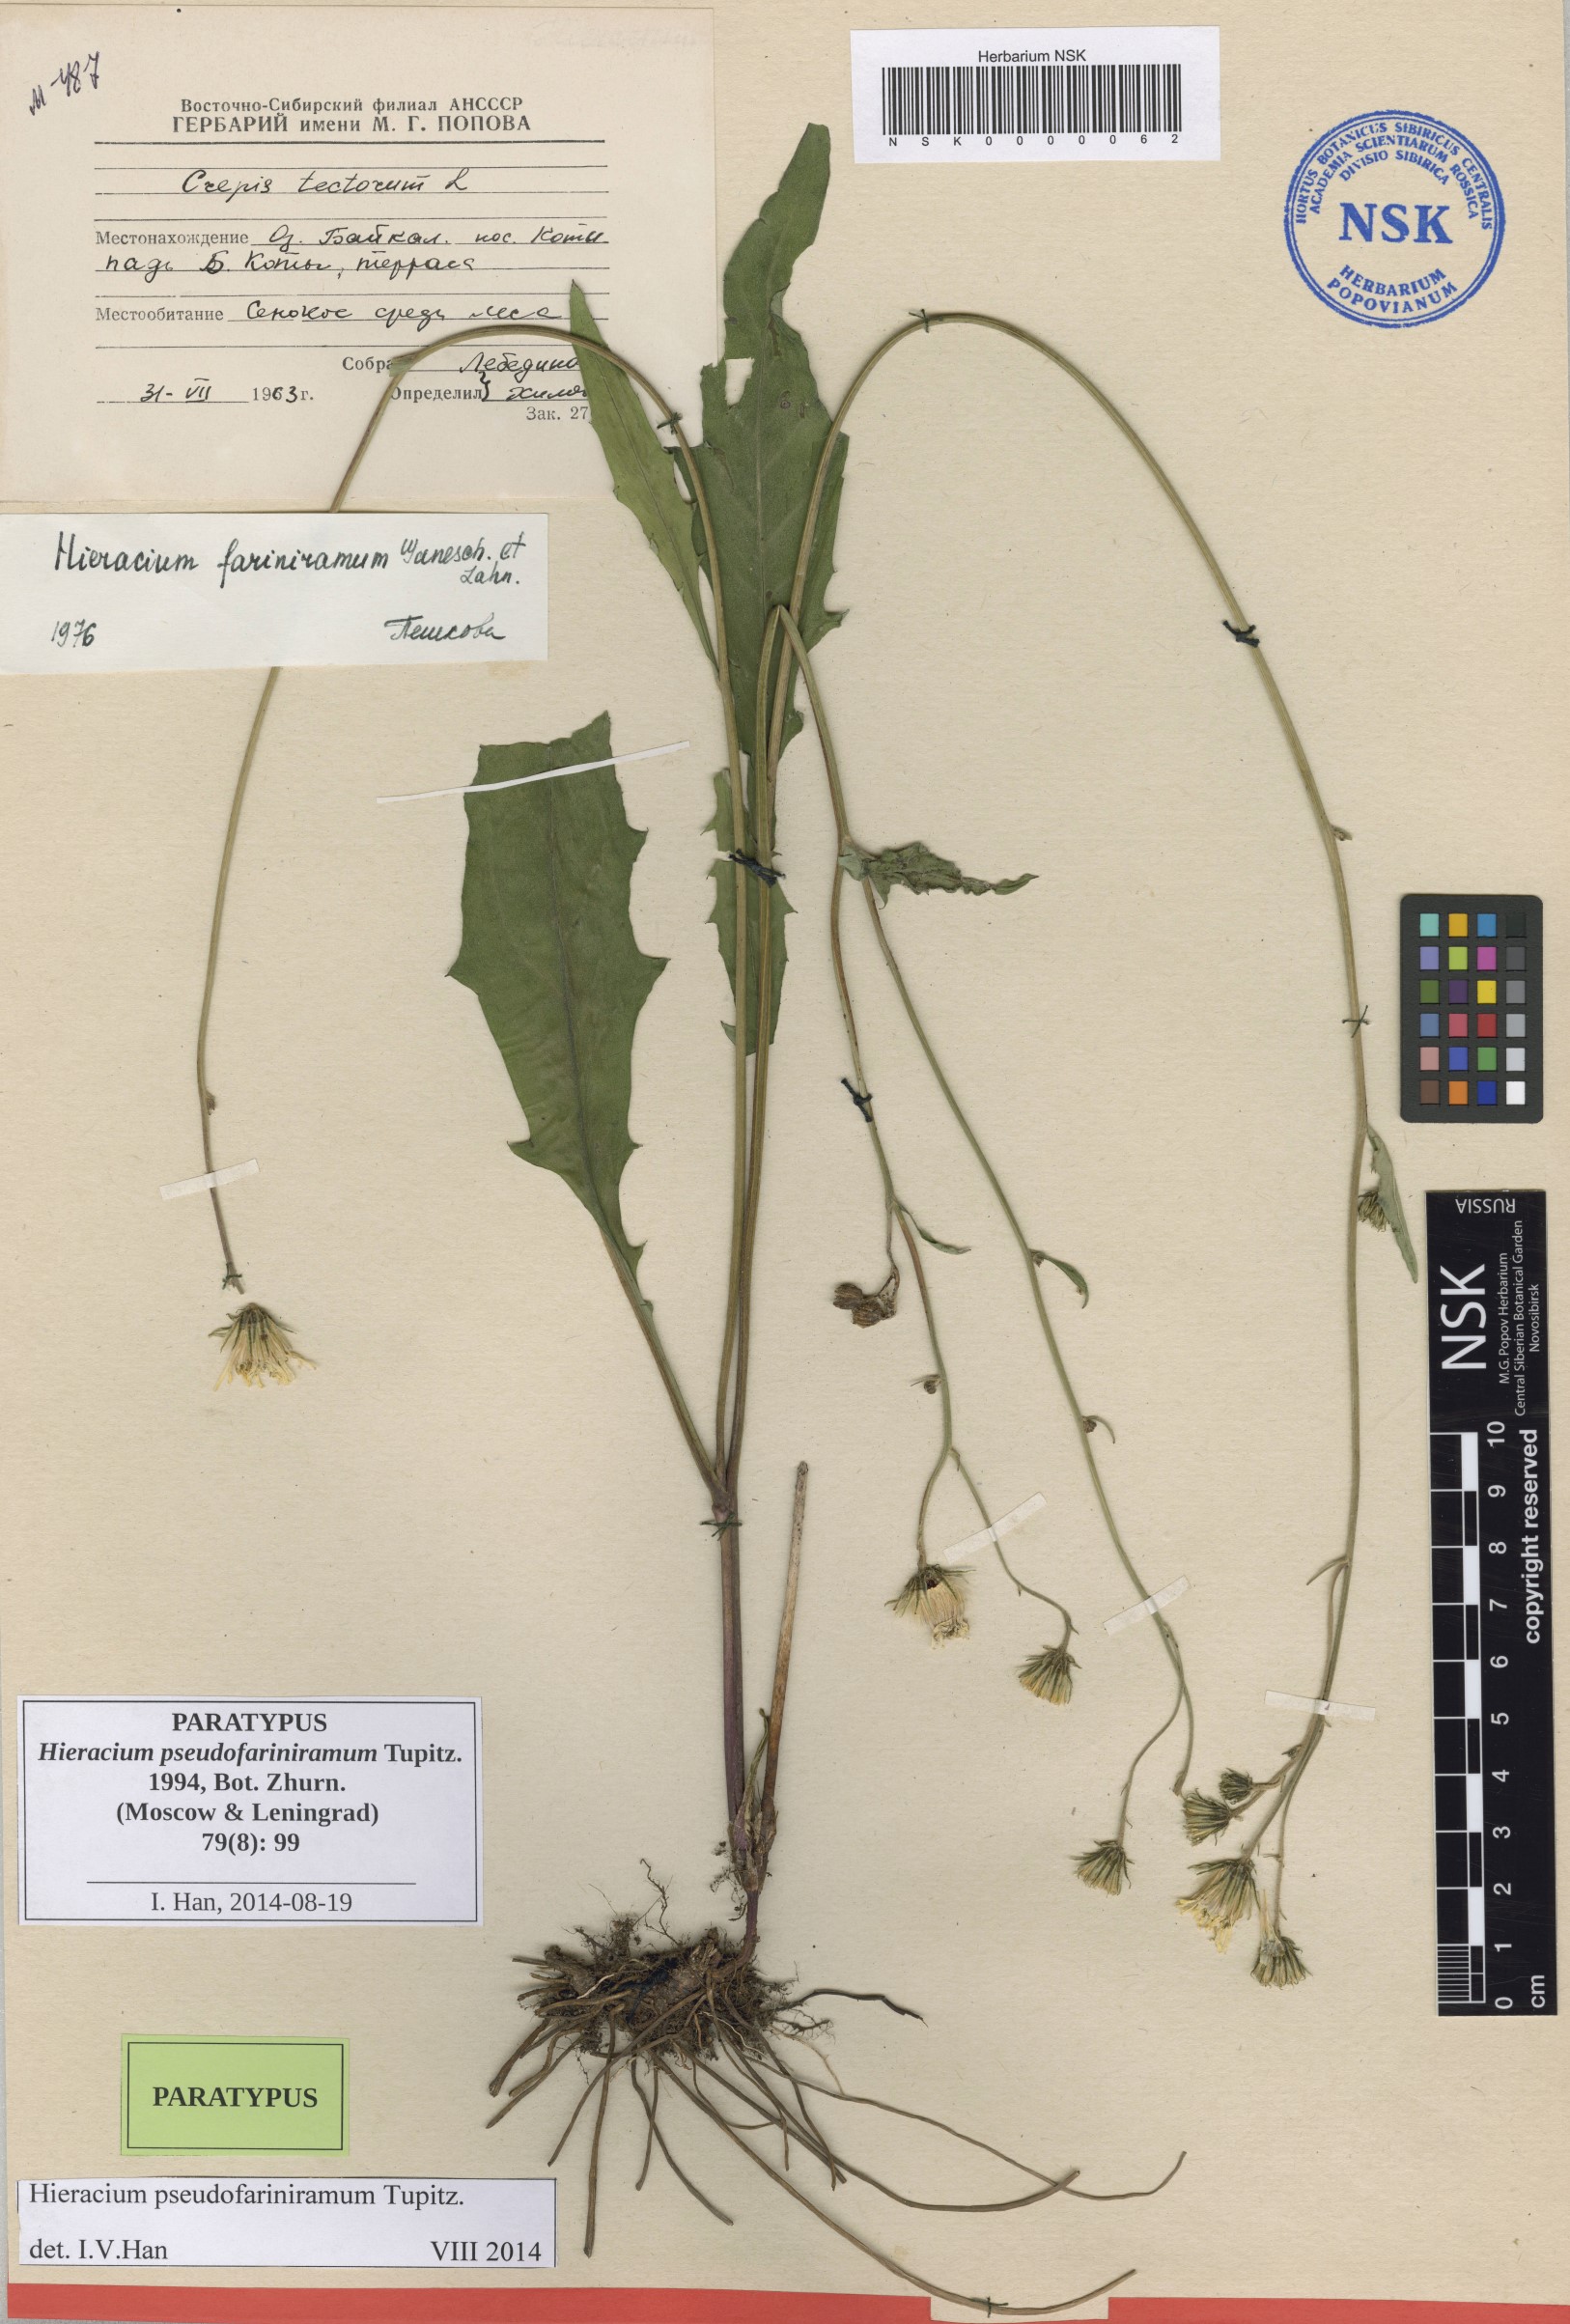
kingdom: Plantae
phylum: Tracheophyta
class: Magnoliopsida
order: Asterales
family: Asteraceae
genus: Hieracium
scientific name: Hieracium pseudofariniramum
